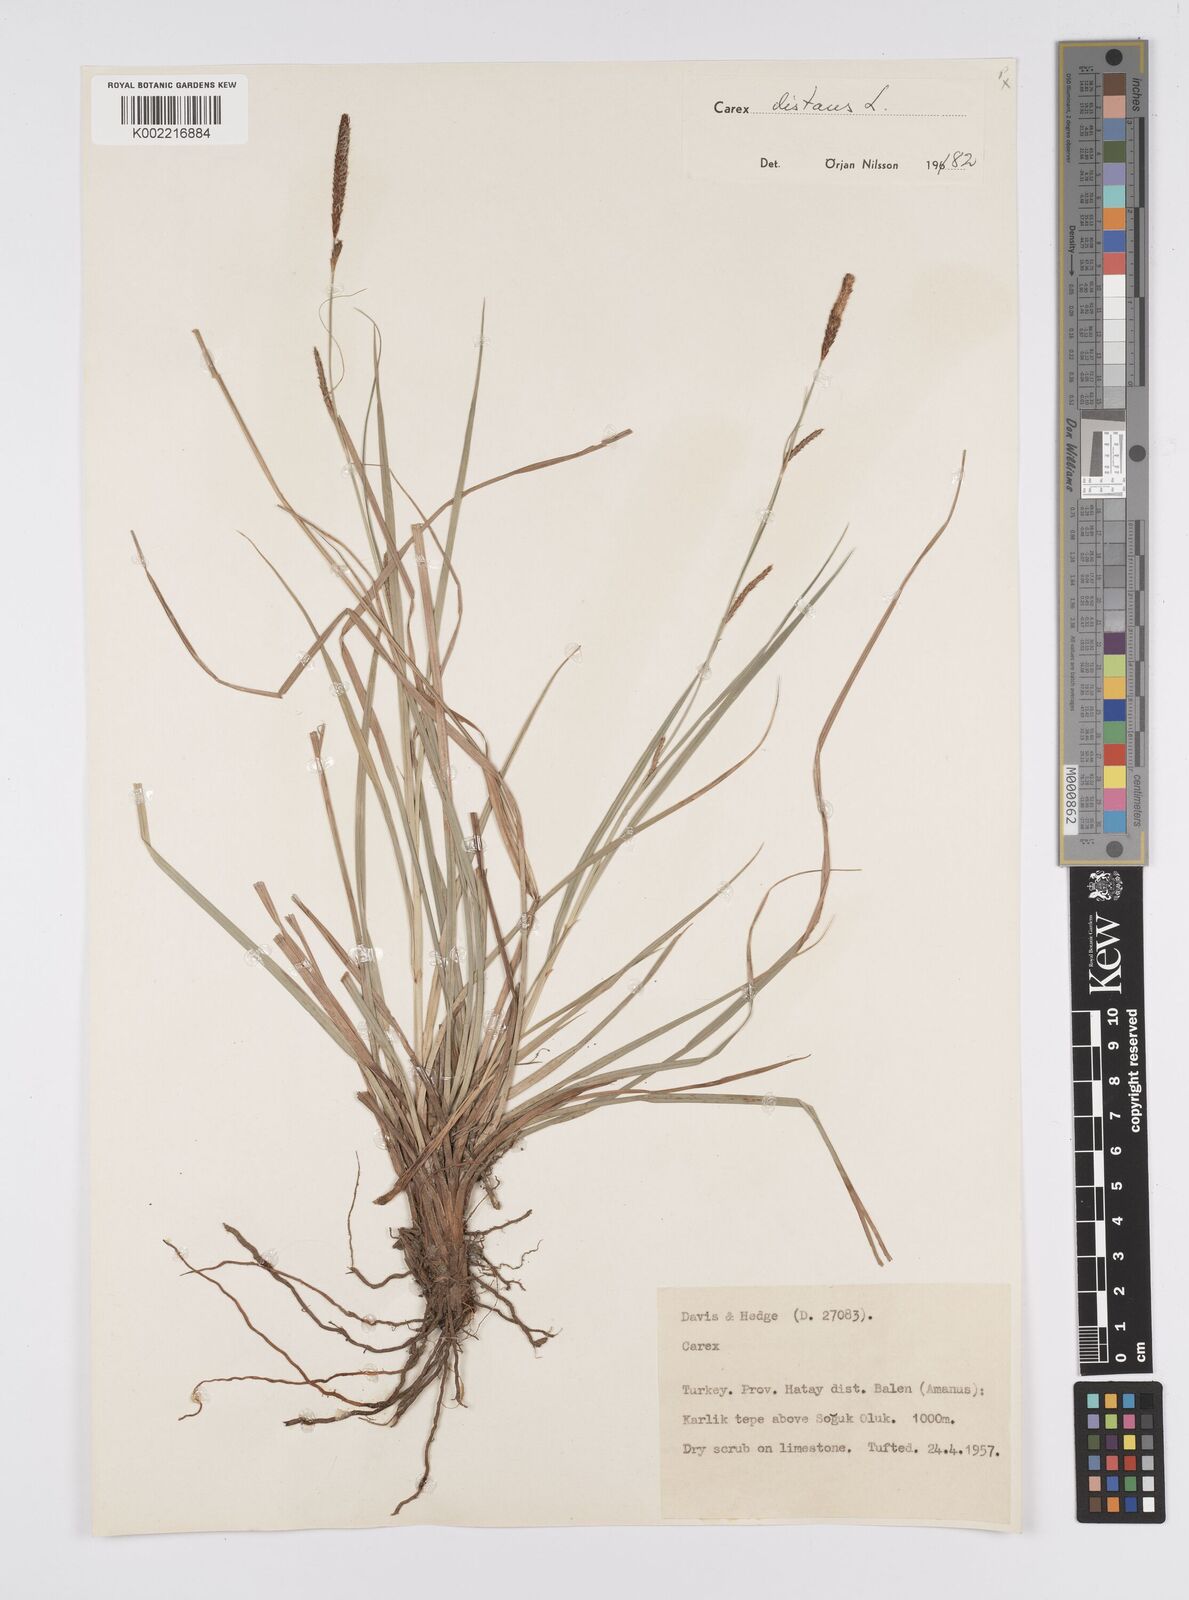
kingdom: Plantae
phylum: Tracheophyta
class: Liliopsida
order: Poales
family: Cyperaceae
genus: Carex
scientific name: Carex distans
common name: Distant sedge
